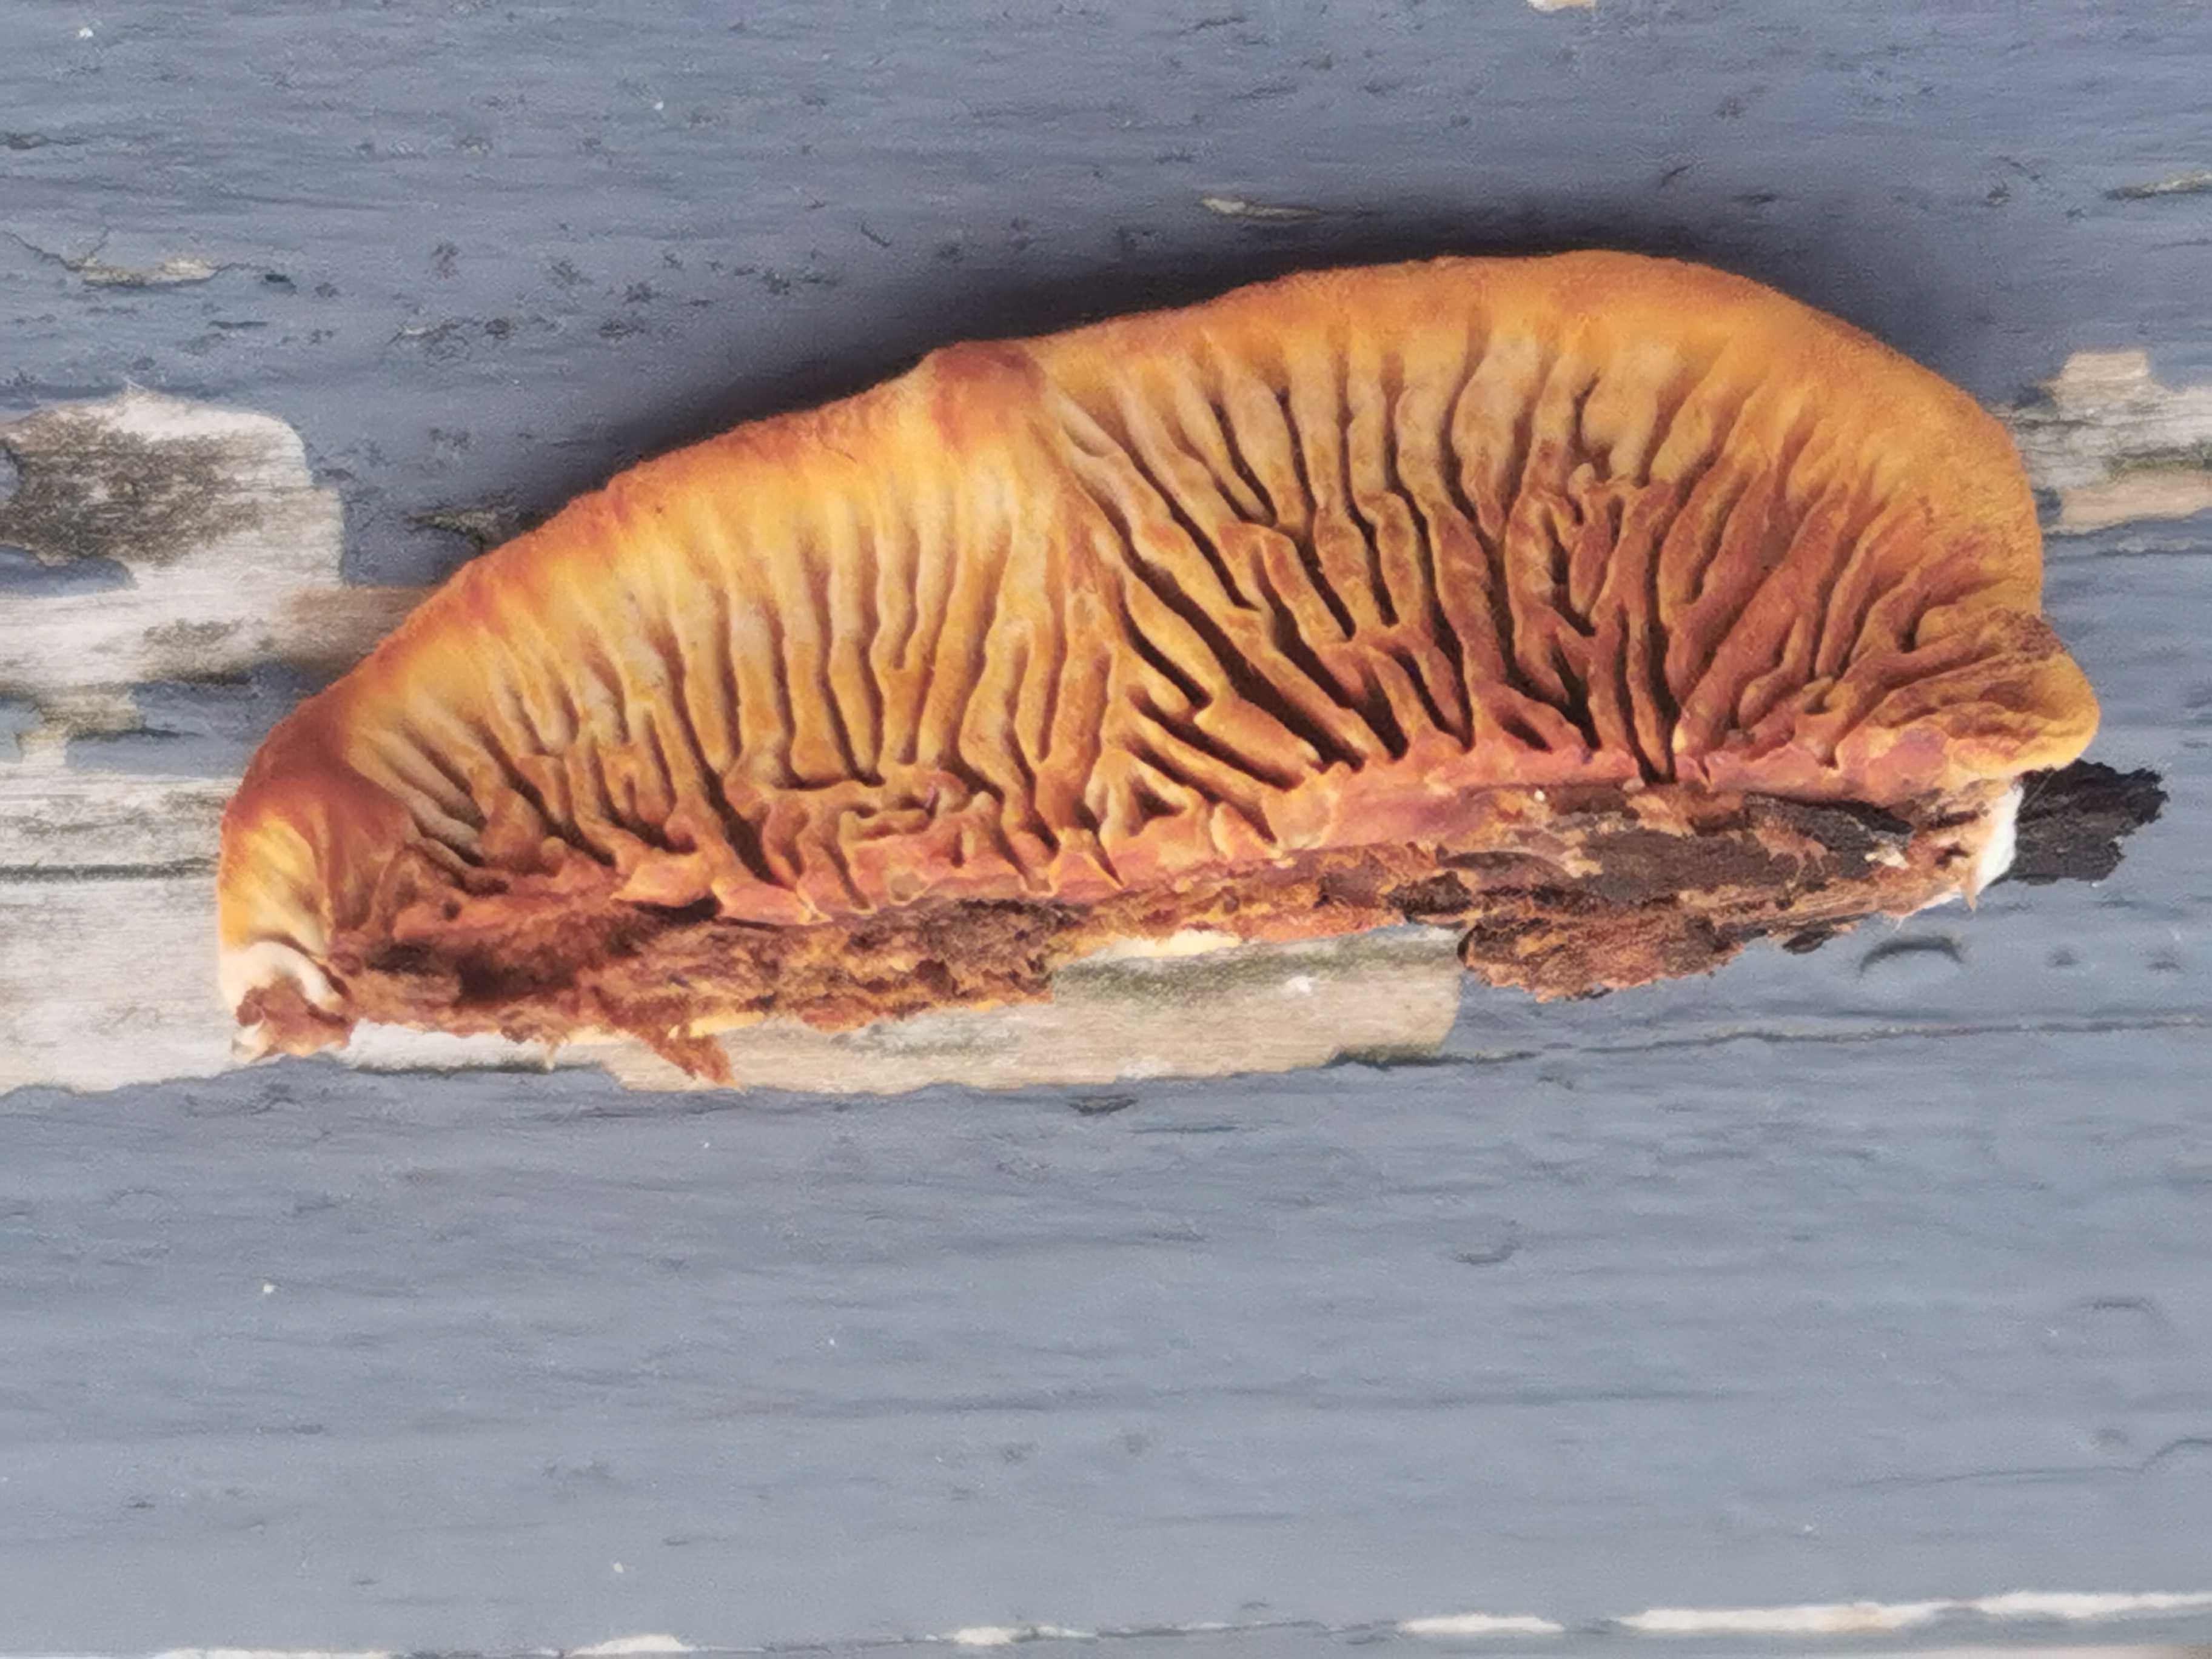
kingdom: Fungi
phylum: Basidiomycota
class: Agaricomycetes
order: Gloeophyllales
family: Gloeophyllaceae
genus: Gloeophyllum
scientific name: Gloeophyllum sepiarium
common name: fyrre-korkhat
